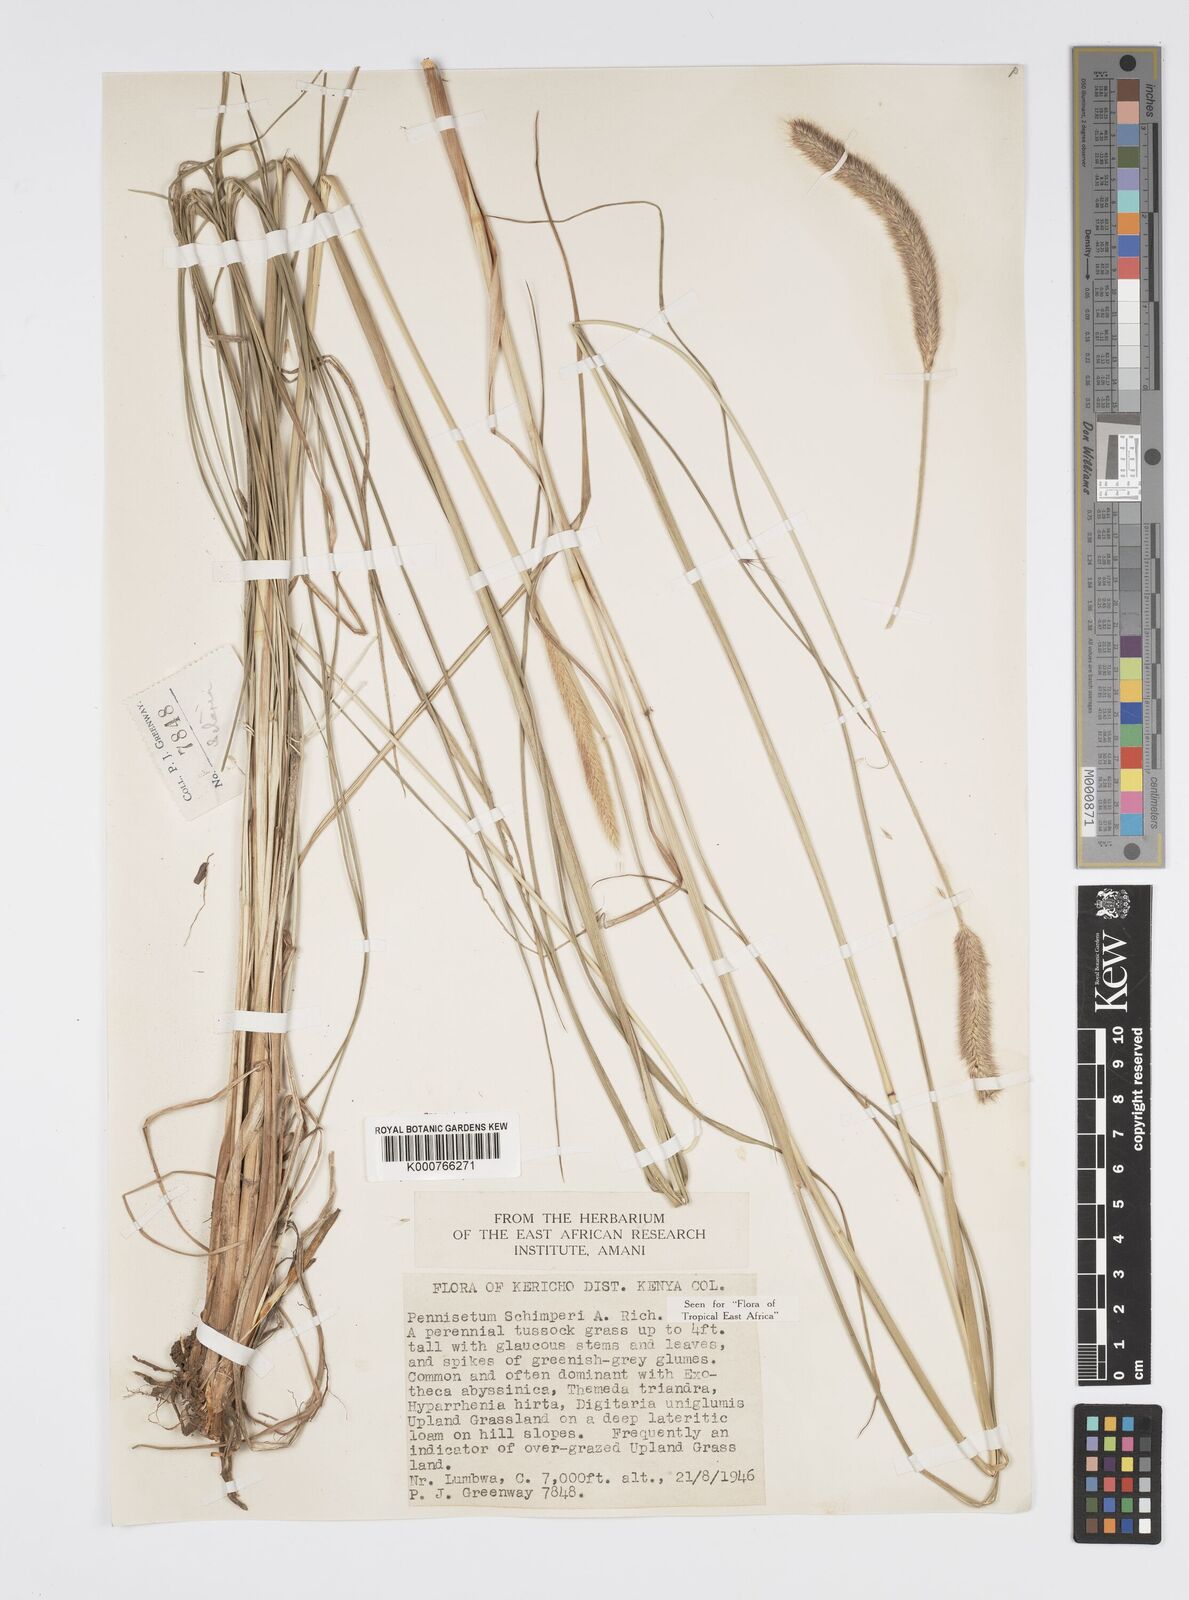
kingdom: Plantae
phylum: Tracheophyta
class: Liliopsida
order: Poales
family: Poaceae
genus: Cenchrus
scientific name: Cenchrus sphacelatus
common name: Bulgras
